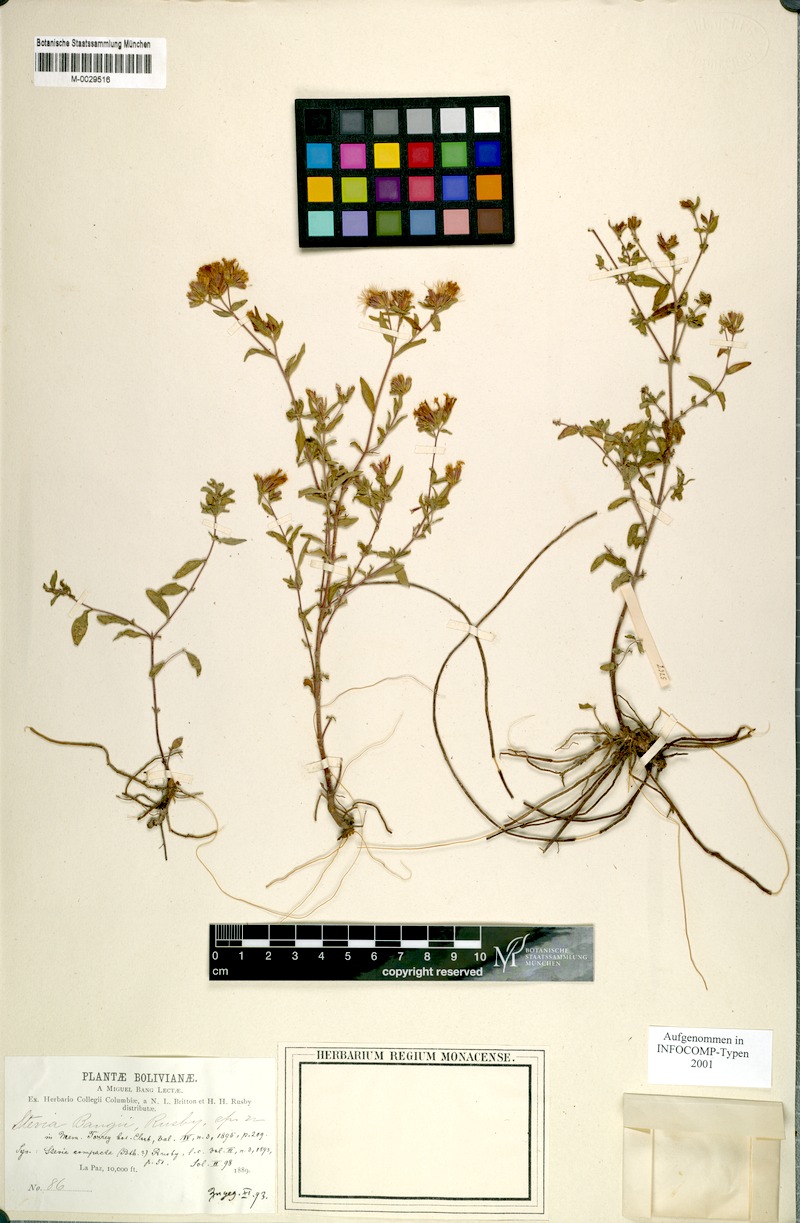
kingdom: Plantae
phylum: Tracheophyta
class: Magnoliopsida
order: Asterales
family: Asteraceae
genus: Stevia
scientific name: Stevia minor
